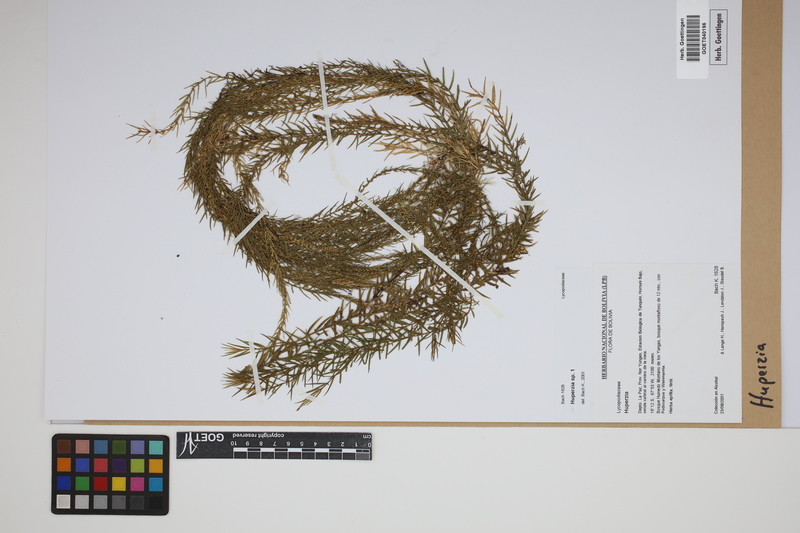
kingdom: Plantae
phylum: Tracheophyta
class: Lycopodiopsida
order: Lycopodiales
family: Lycopodiaceae
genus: Phlegmariurus
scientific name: Phlegmariurus
